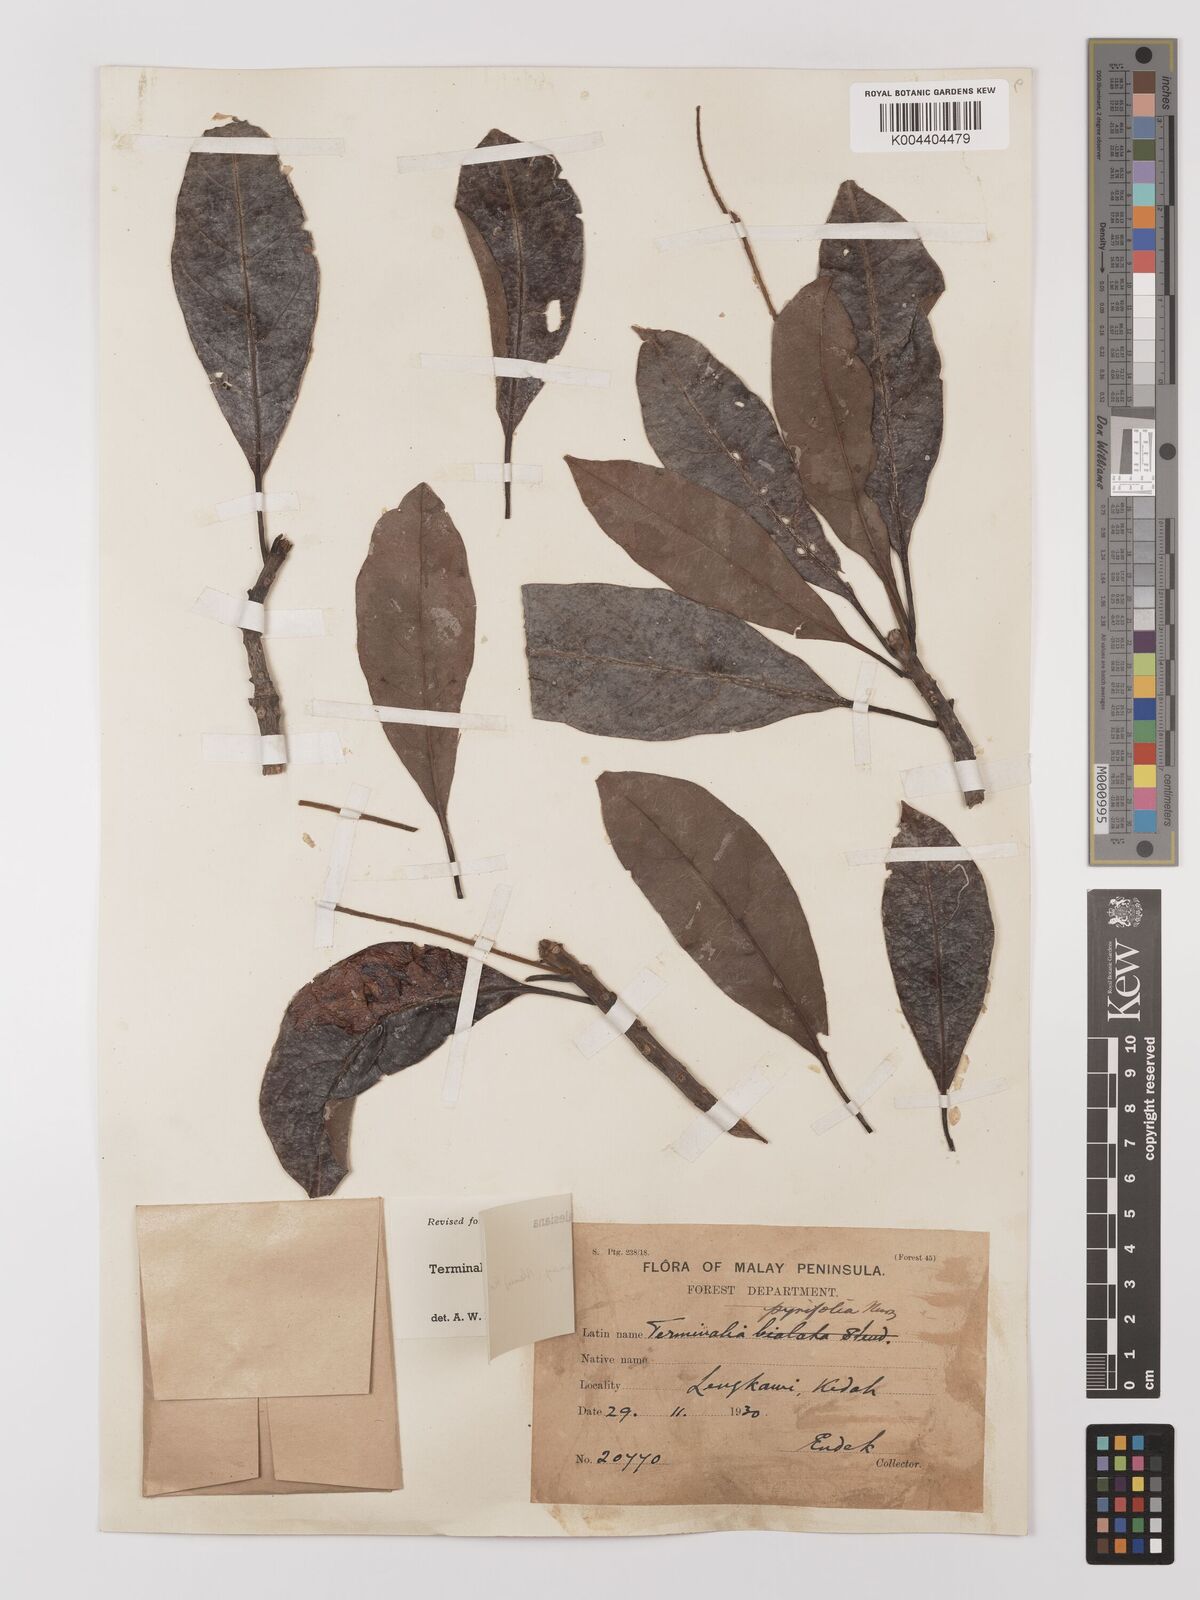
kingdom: Plantae
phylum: Tracheophyta
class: Magnoliopsida
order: Myrtales
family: Combretaceae
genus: Terminalia
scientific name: Terminalia calamansanai
